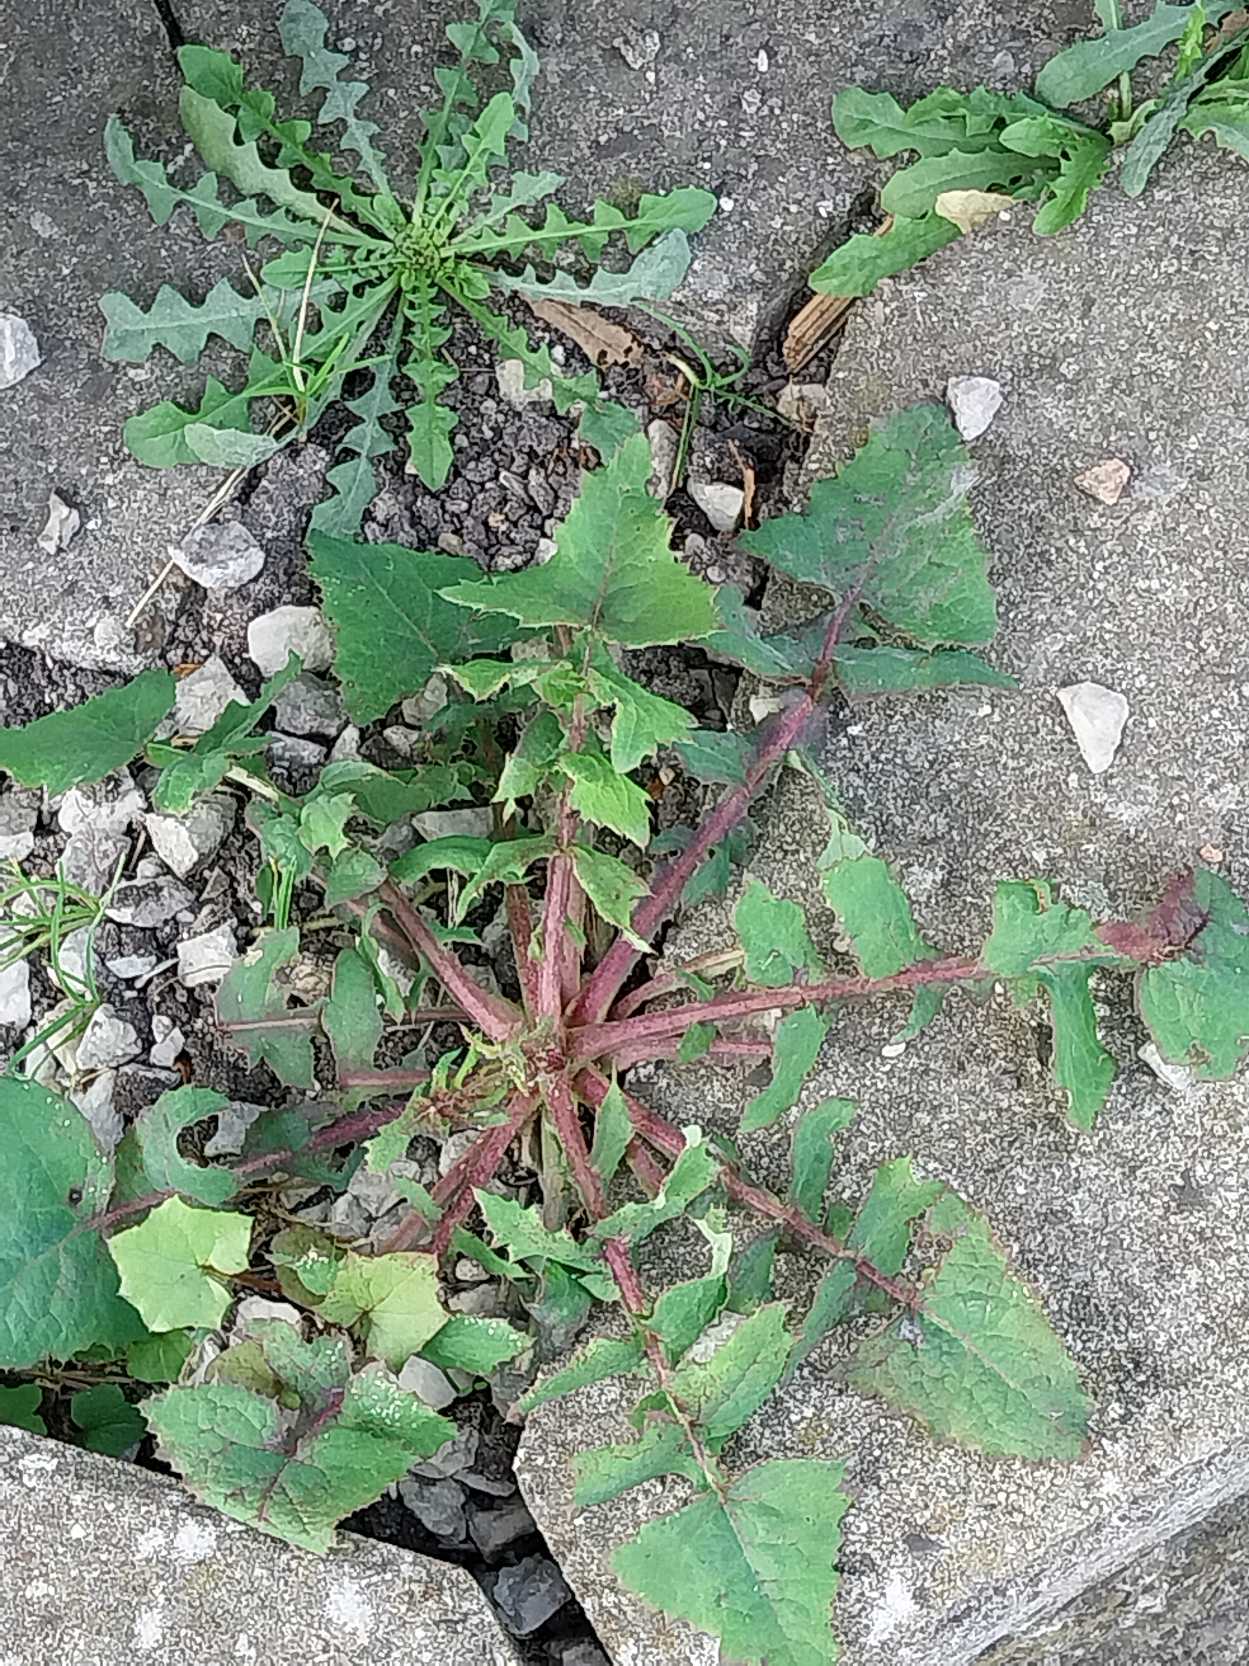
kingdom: Plantae
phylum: Tracheophyta
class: Magnoliopsida
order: Asterales
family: Asteraceae
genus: Sonchus
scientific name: Sonchus oleraceus
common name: Almindelig svinemælk
